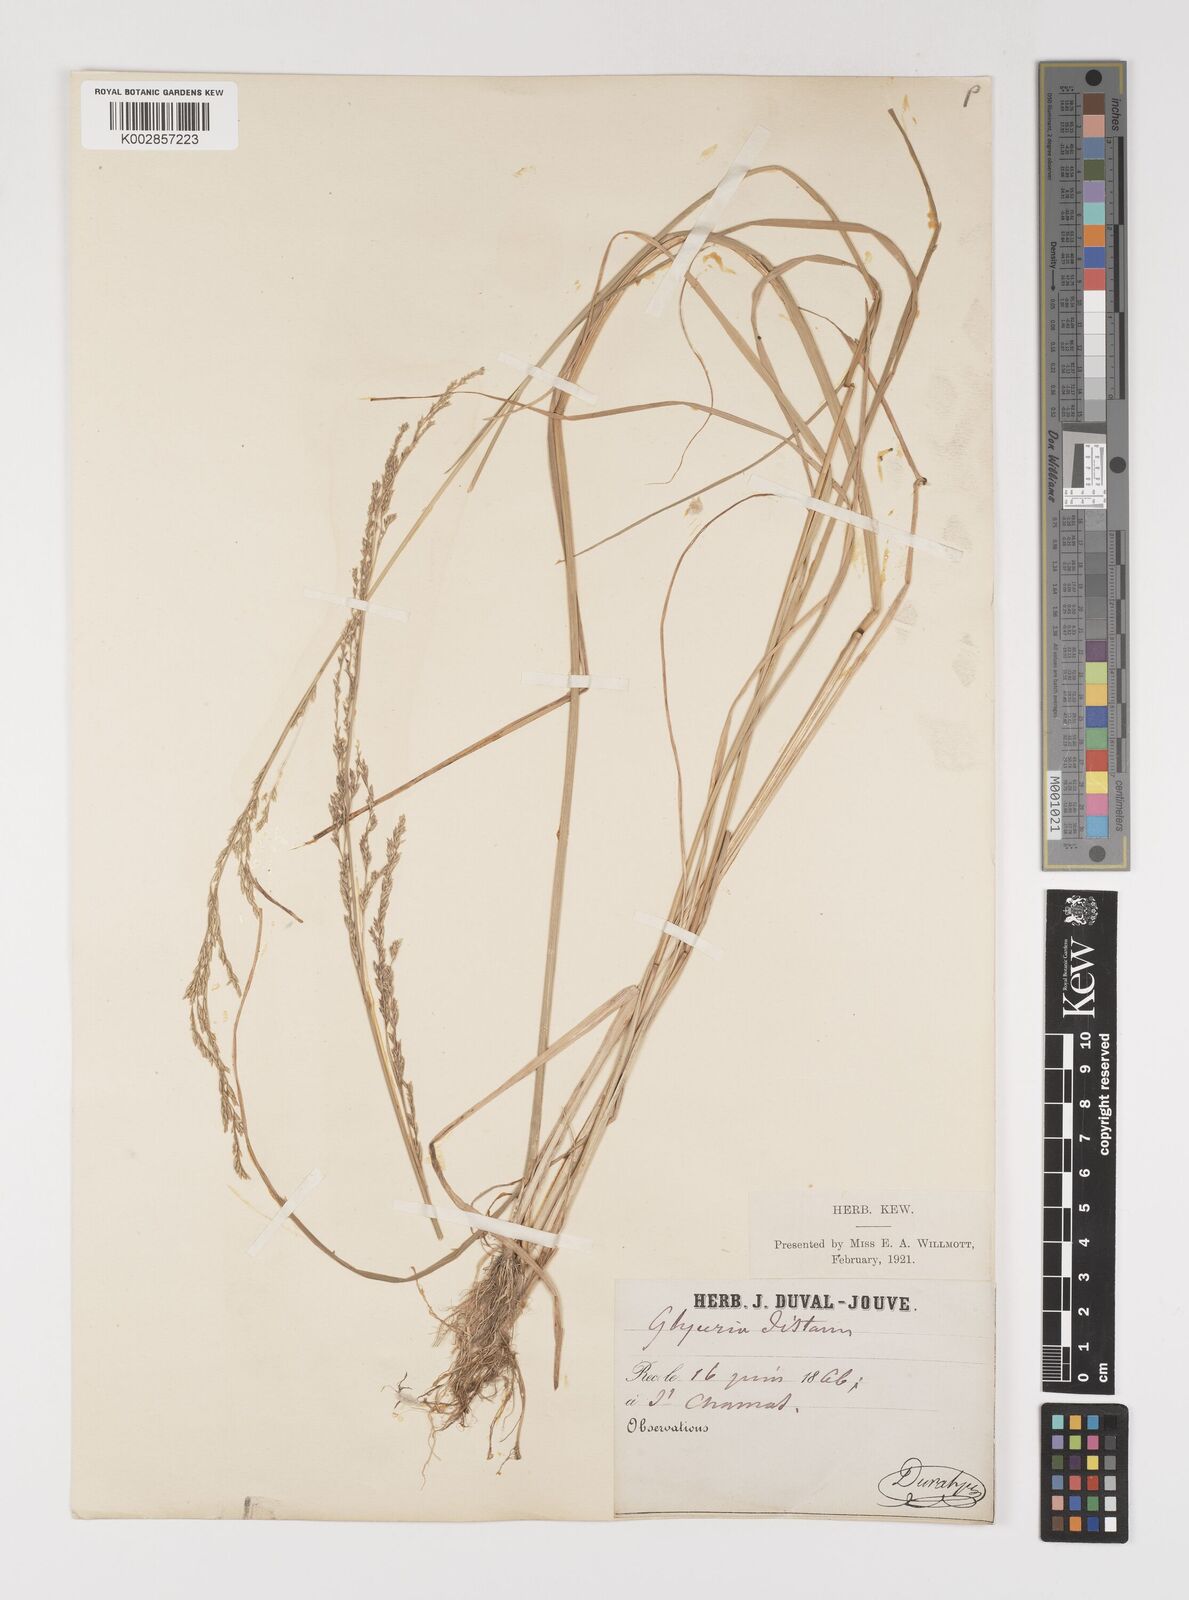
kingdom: Plantae
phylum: Tracheophyta
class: Liliopsida
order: Poales
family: Poaceae
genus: Puccinellia
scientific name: Puccinellia
